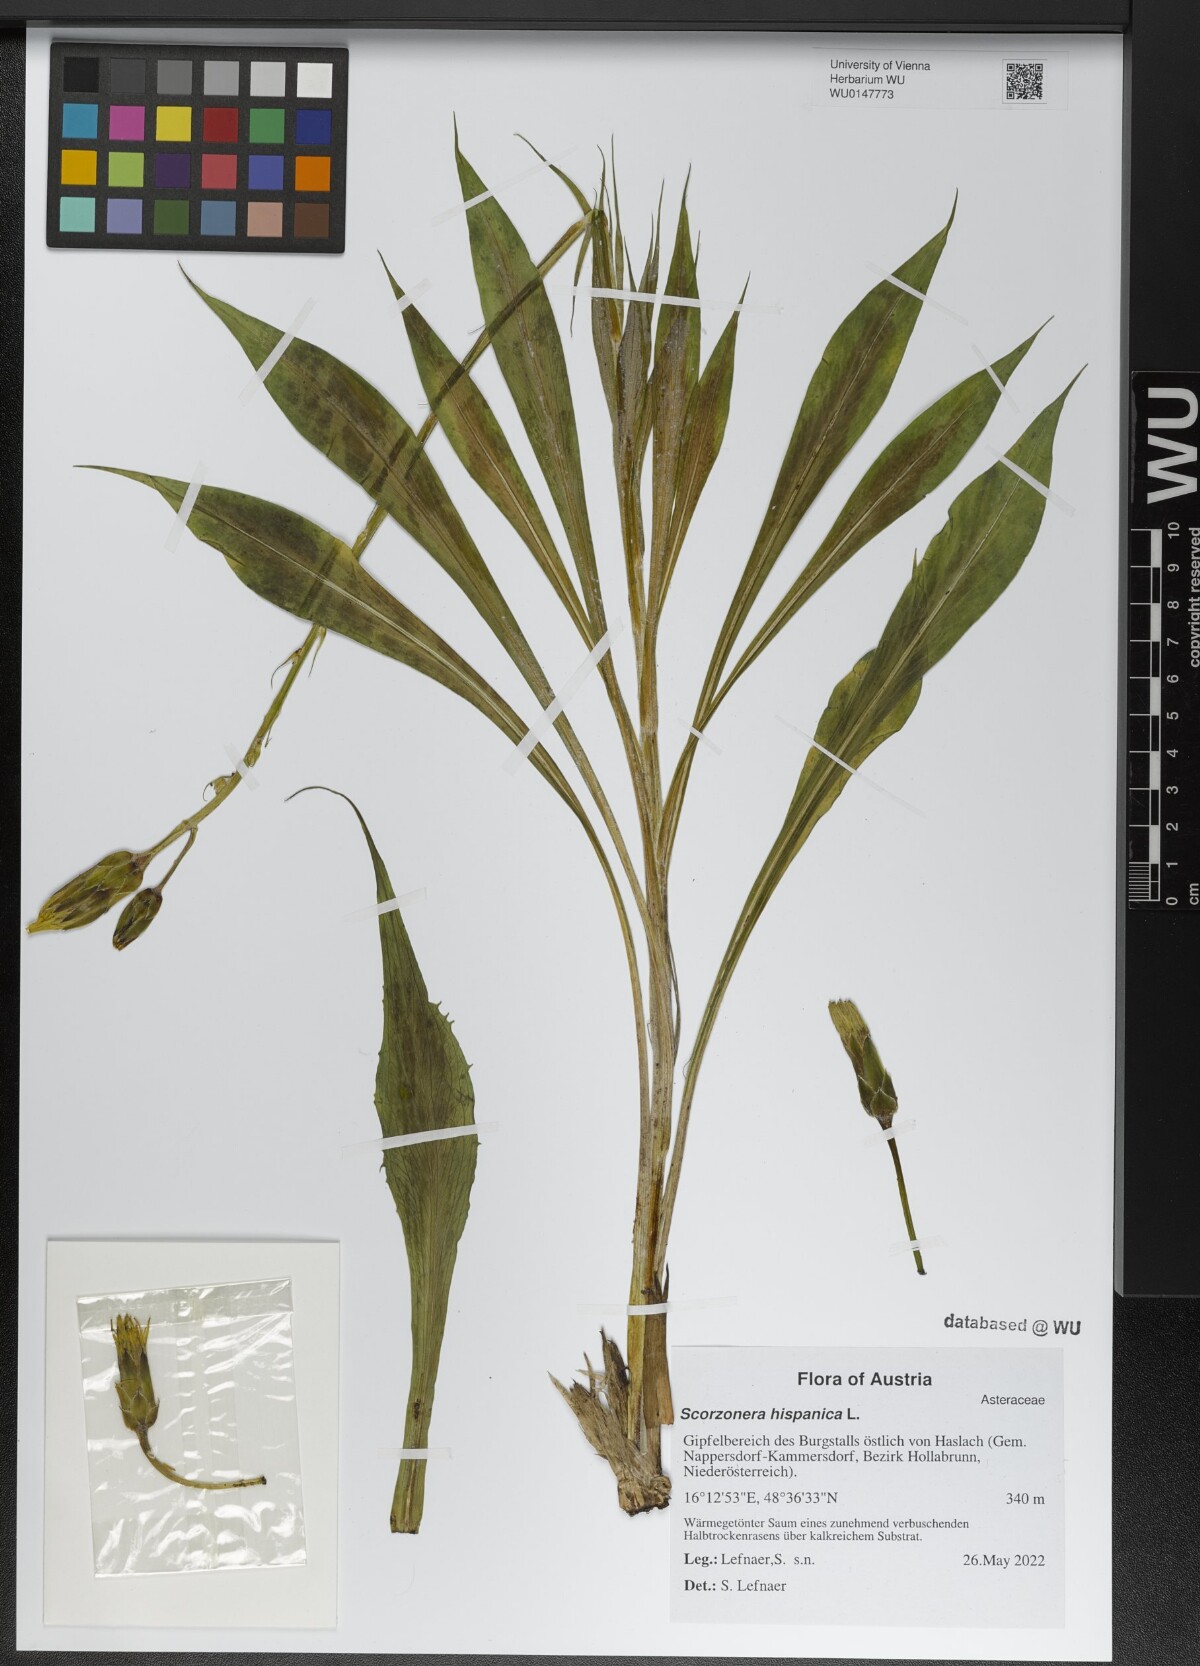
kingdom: Plantae
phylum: Tracheophyta
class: Magnoliopsida
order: Asterales
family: Asteraceae
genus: Pseudopodospermum
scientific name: Pseudopodospermum hispanicum
